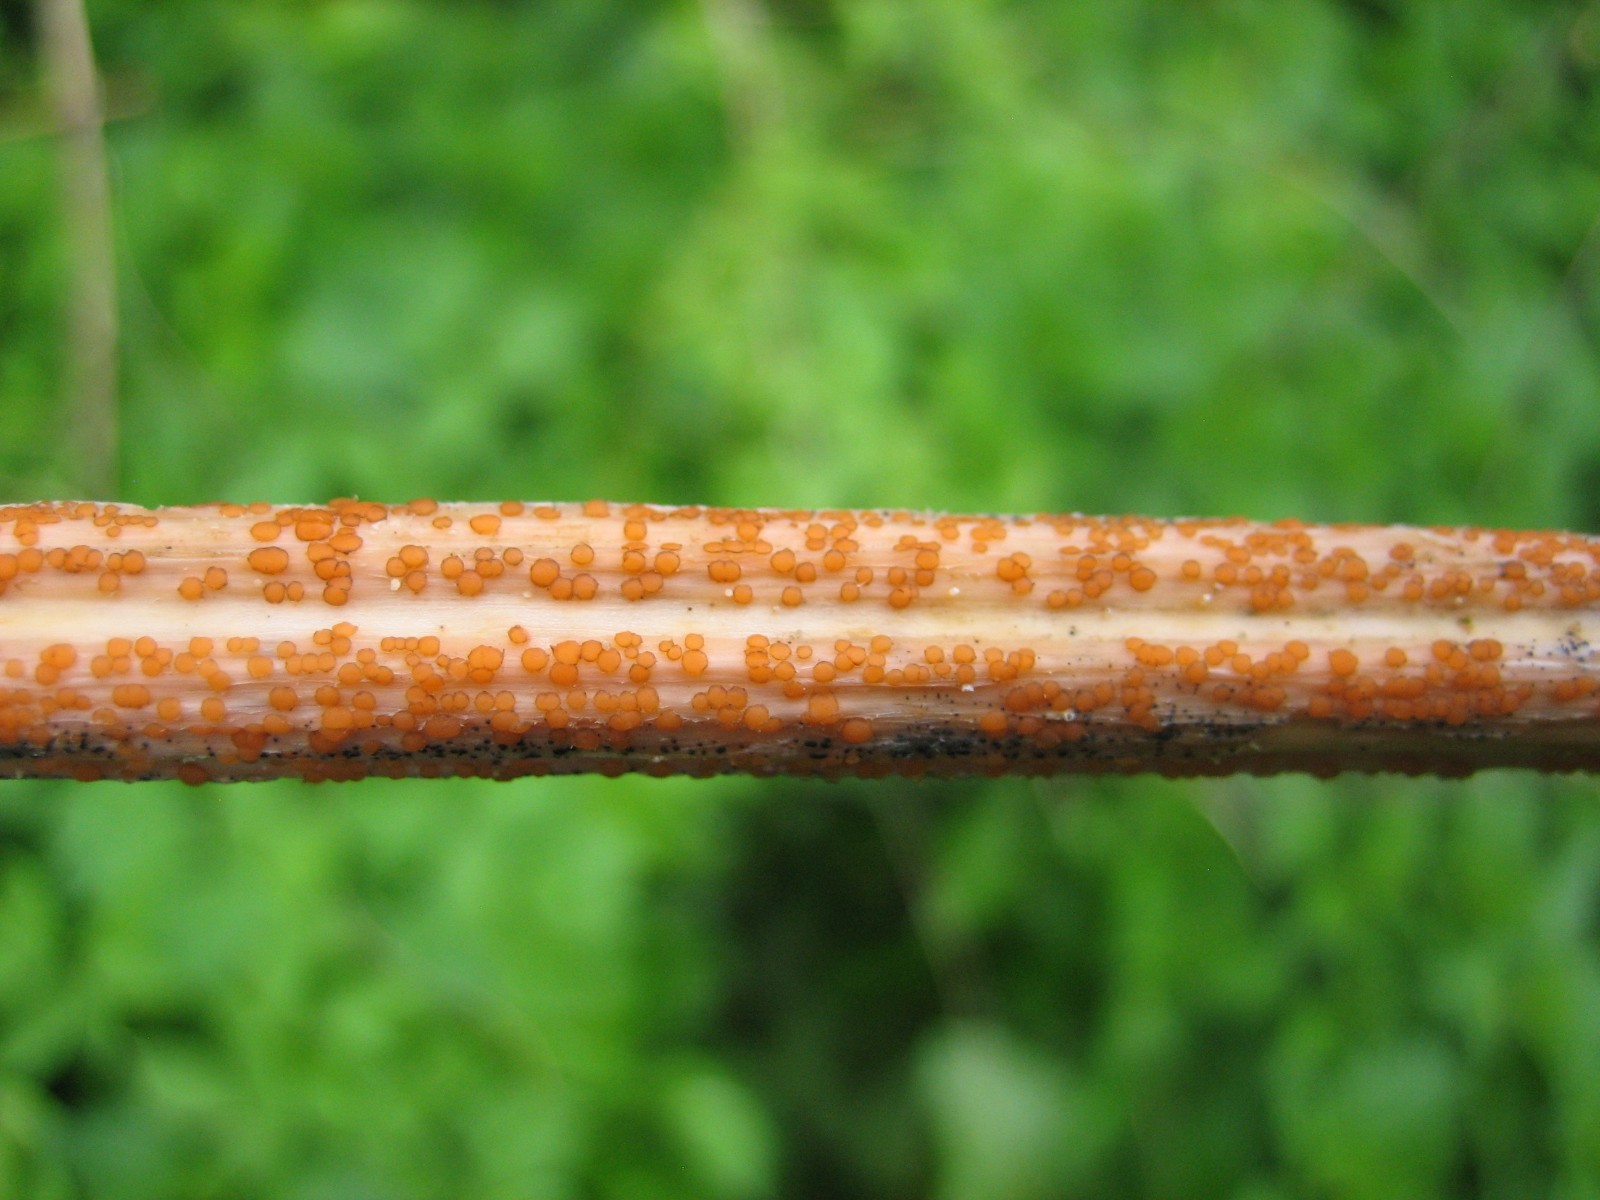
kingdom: Fungi
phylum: Ascomycota
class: Leotiomycetes
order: Helotiales
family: Calloriaceae
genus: Calloria
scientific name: Calloria urticae
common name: nælde-orangeskive
